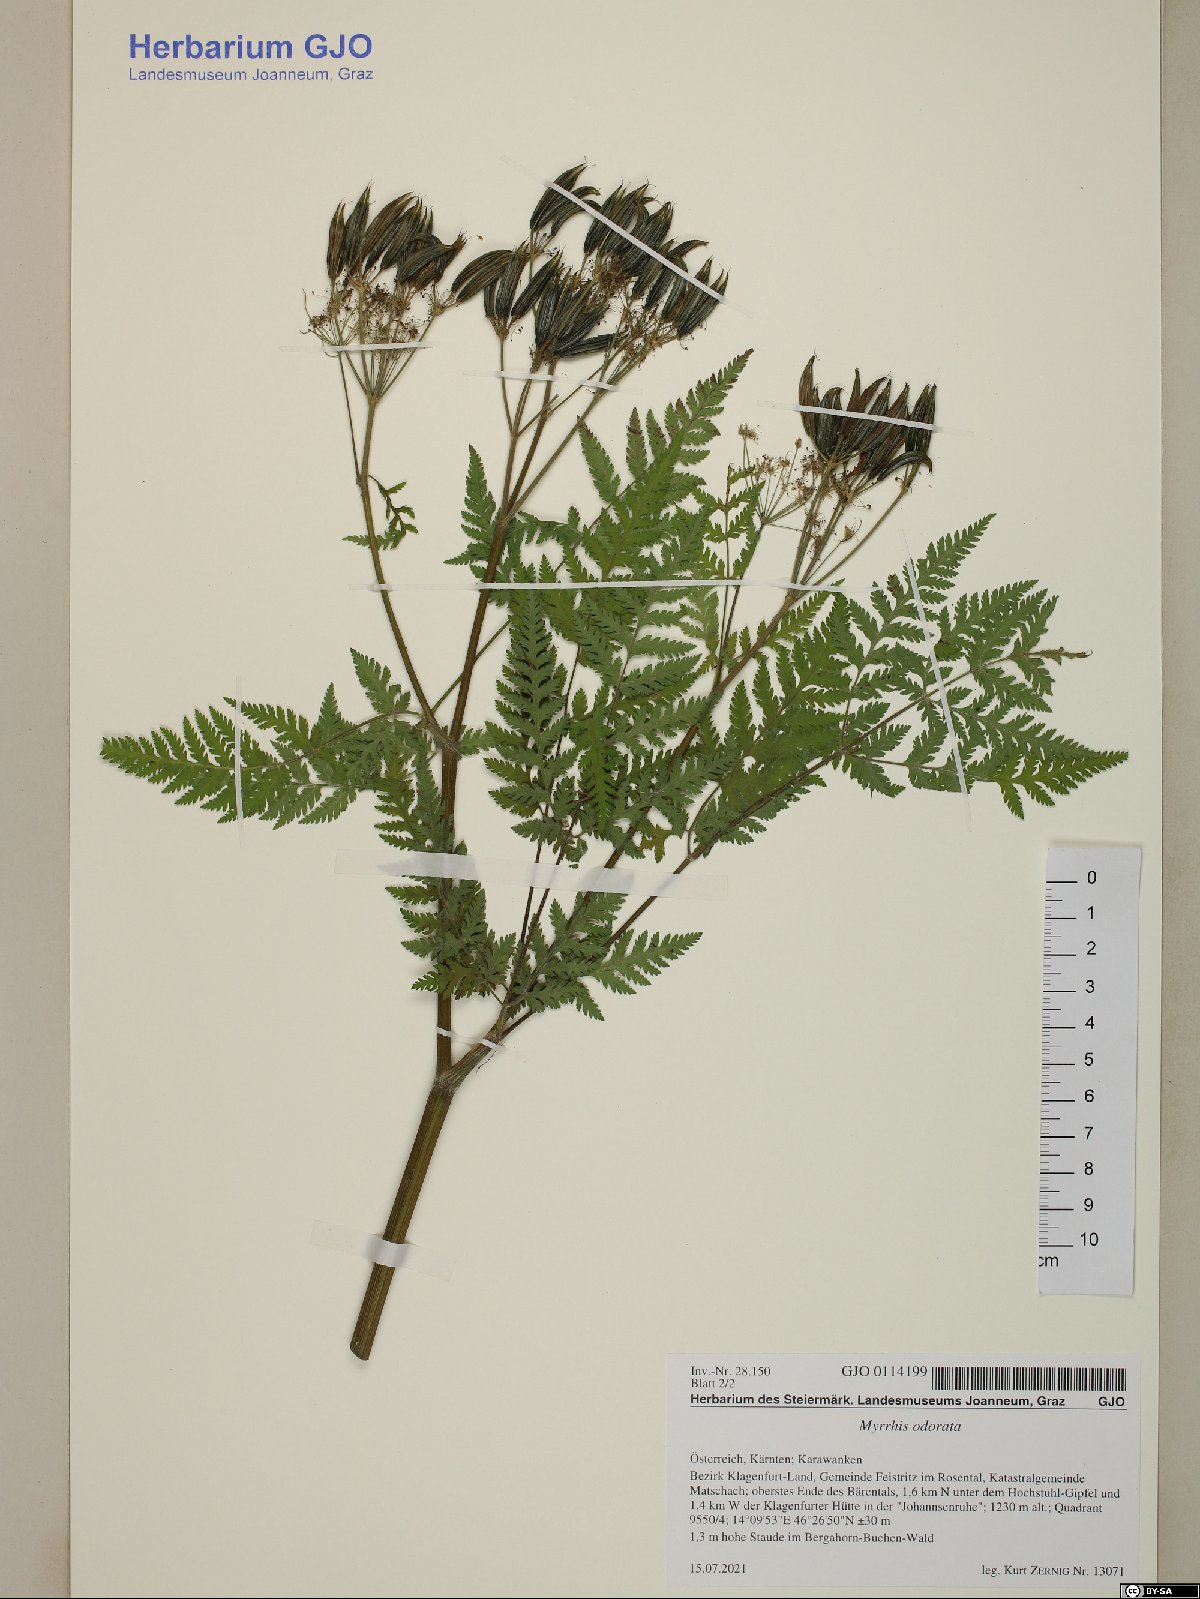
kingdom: Plantae
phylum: Tracheophyta
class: Magnoliopsida
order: Apiales
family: Apiaceae
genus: Myrrhis
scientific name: Myrrhis odorata
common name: Sweet cicely
